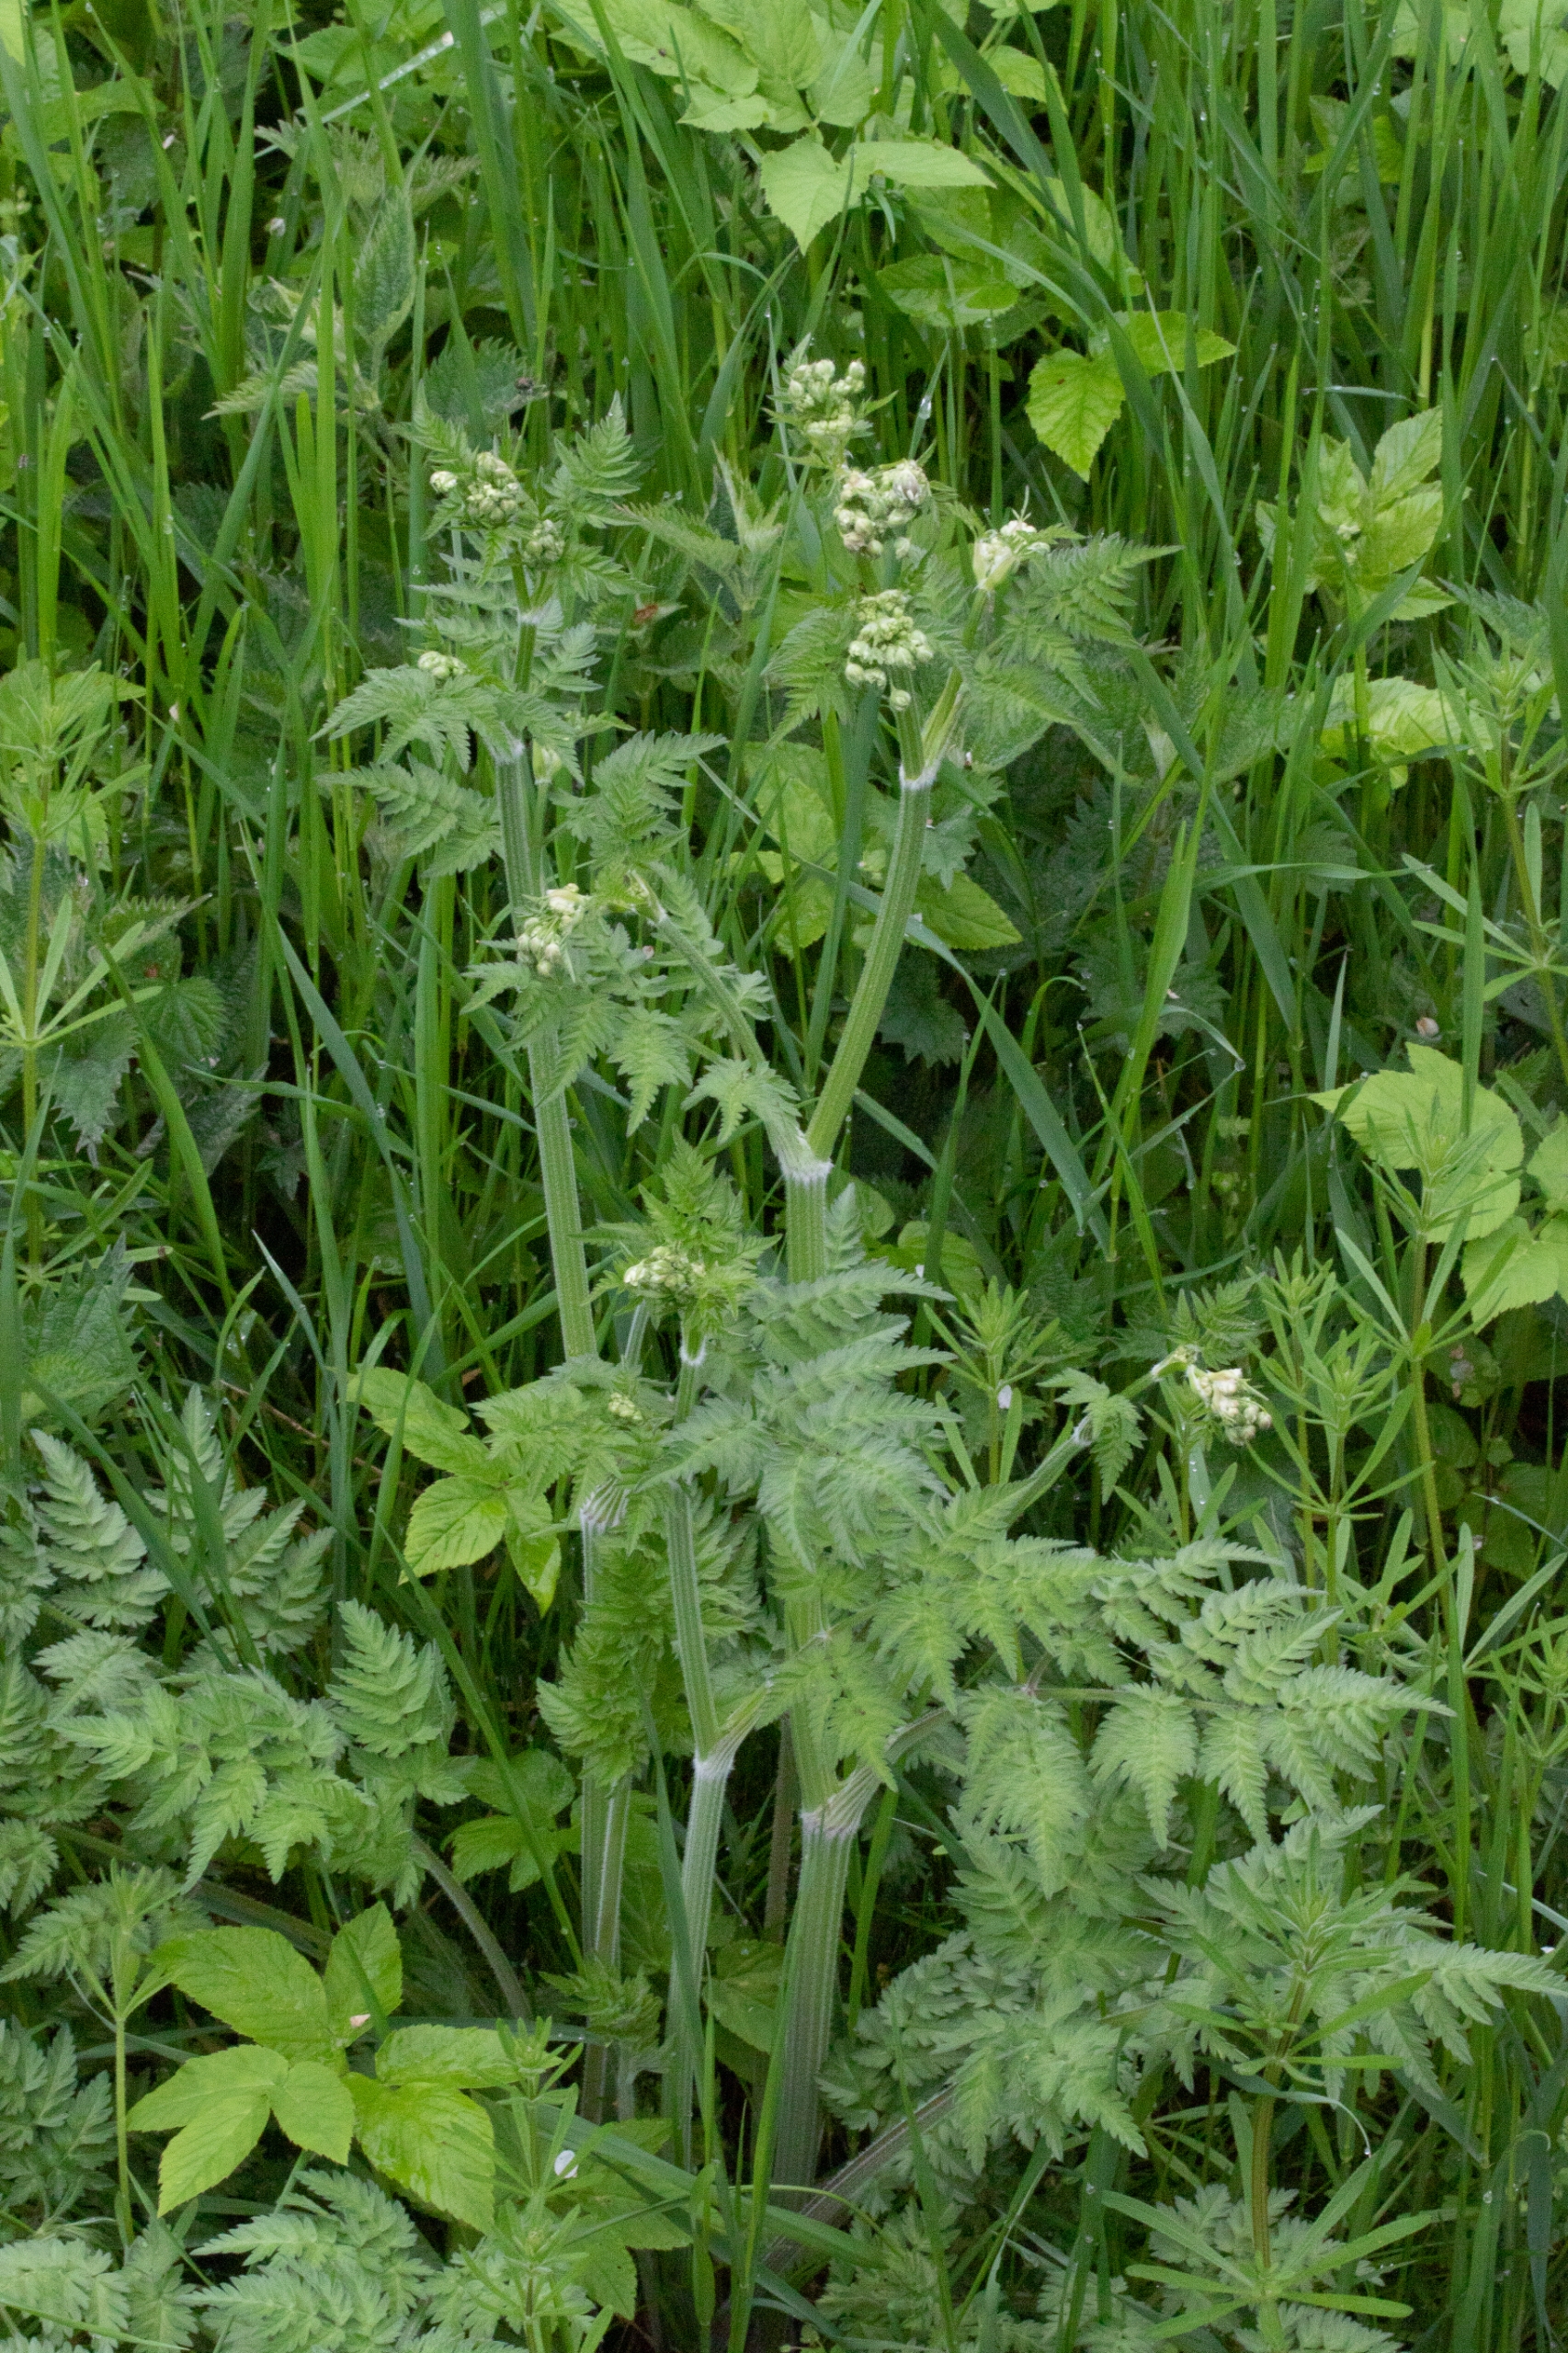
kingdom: Plantae
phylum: Tracheophyta
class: Magnoliopsida
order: Apiales
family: Apiaceae
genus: Anthriscus
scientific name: Anthriscus sylvestris
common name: Vild kørvel
